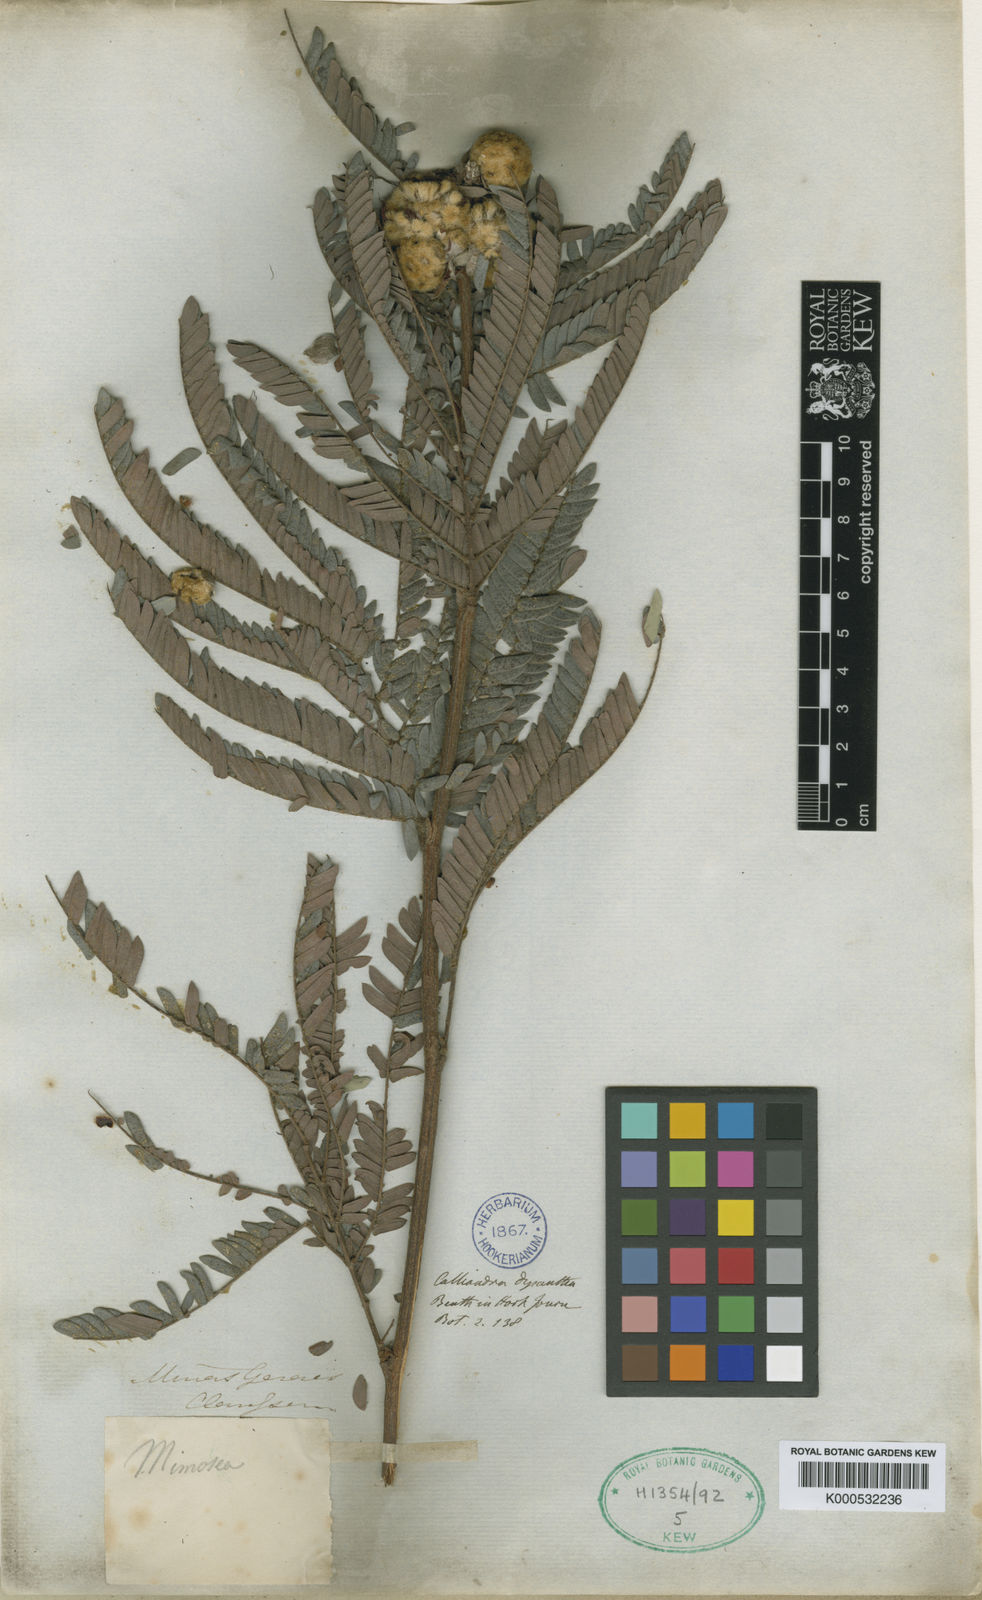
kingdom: Plantae
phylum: Tracheophyta
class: Magnoliopsida
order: Fabales
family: Fabaceae
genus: Calliandra
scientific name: Calliandra dysantha
